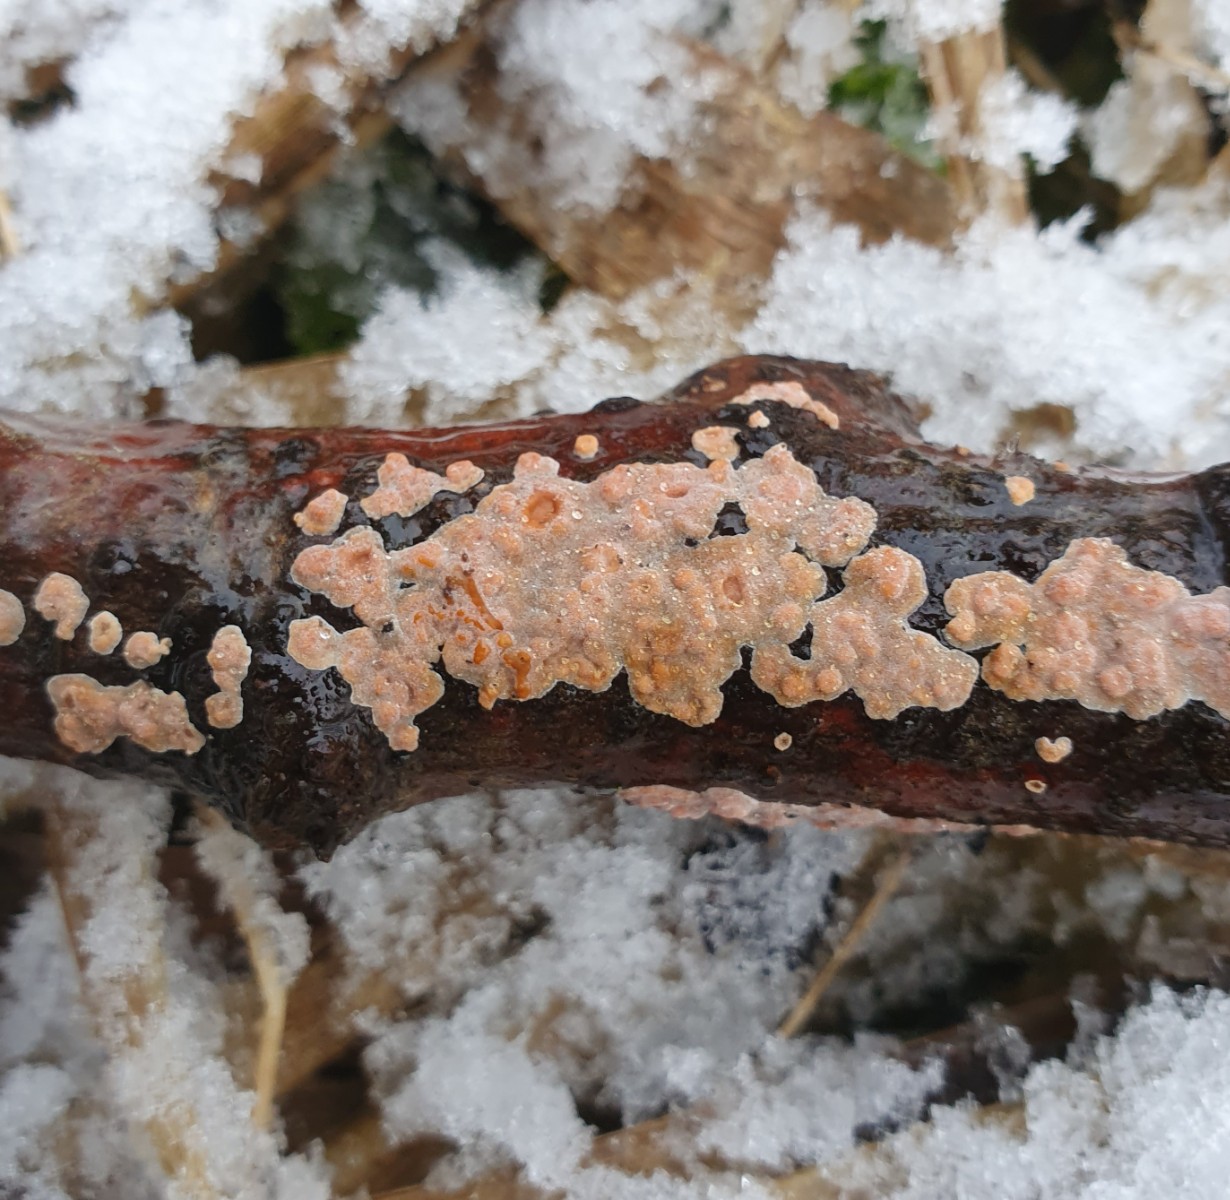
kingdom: Fungi
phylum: Basidiomycota
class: Agaricomycetes
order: Russulales
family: Peniophoraceae
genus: Peniophora
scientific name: Peniophora polygonia
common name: polygon-voksskind
